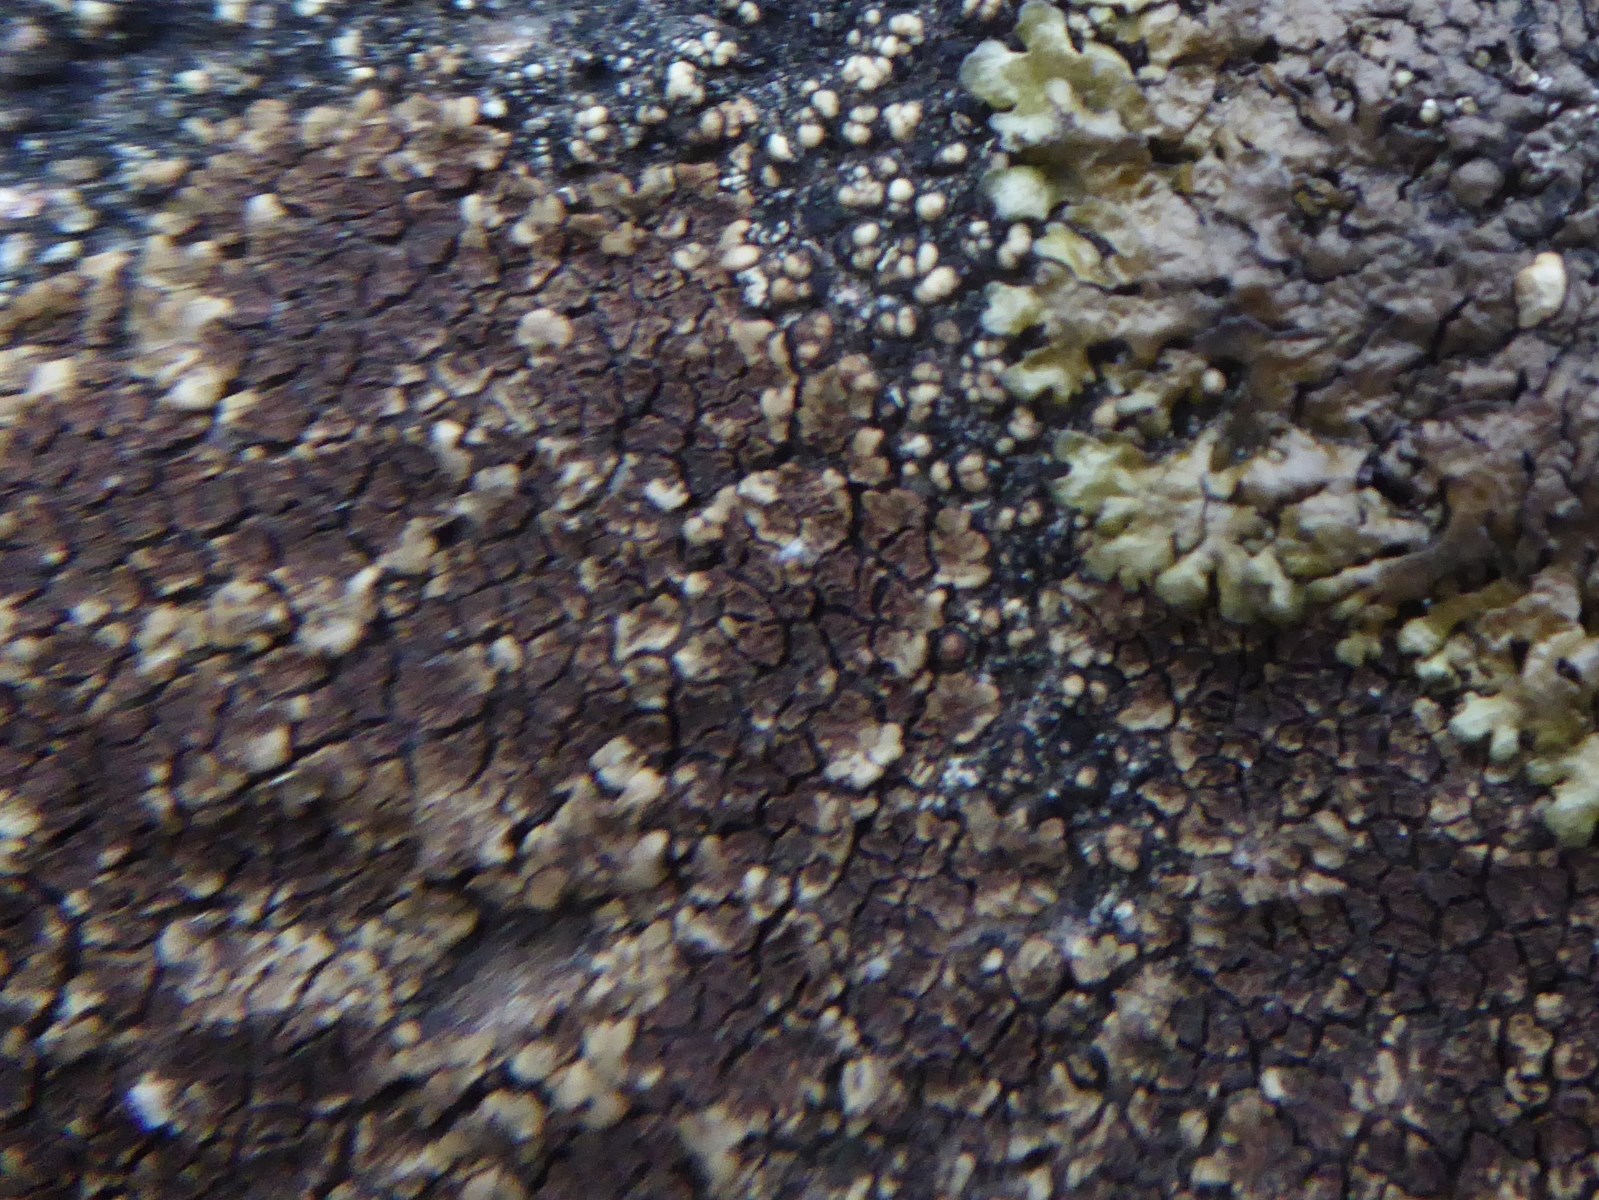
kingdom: Fungi
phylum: Ascomycota
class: Lecanoromycetes
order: Acarosporales
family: Acarosporaceae
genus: Acarospora
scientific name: Acarospora fuscata
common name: brun småsporelav
